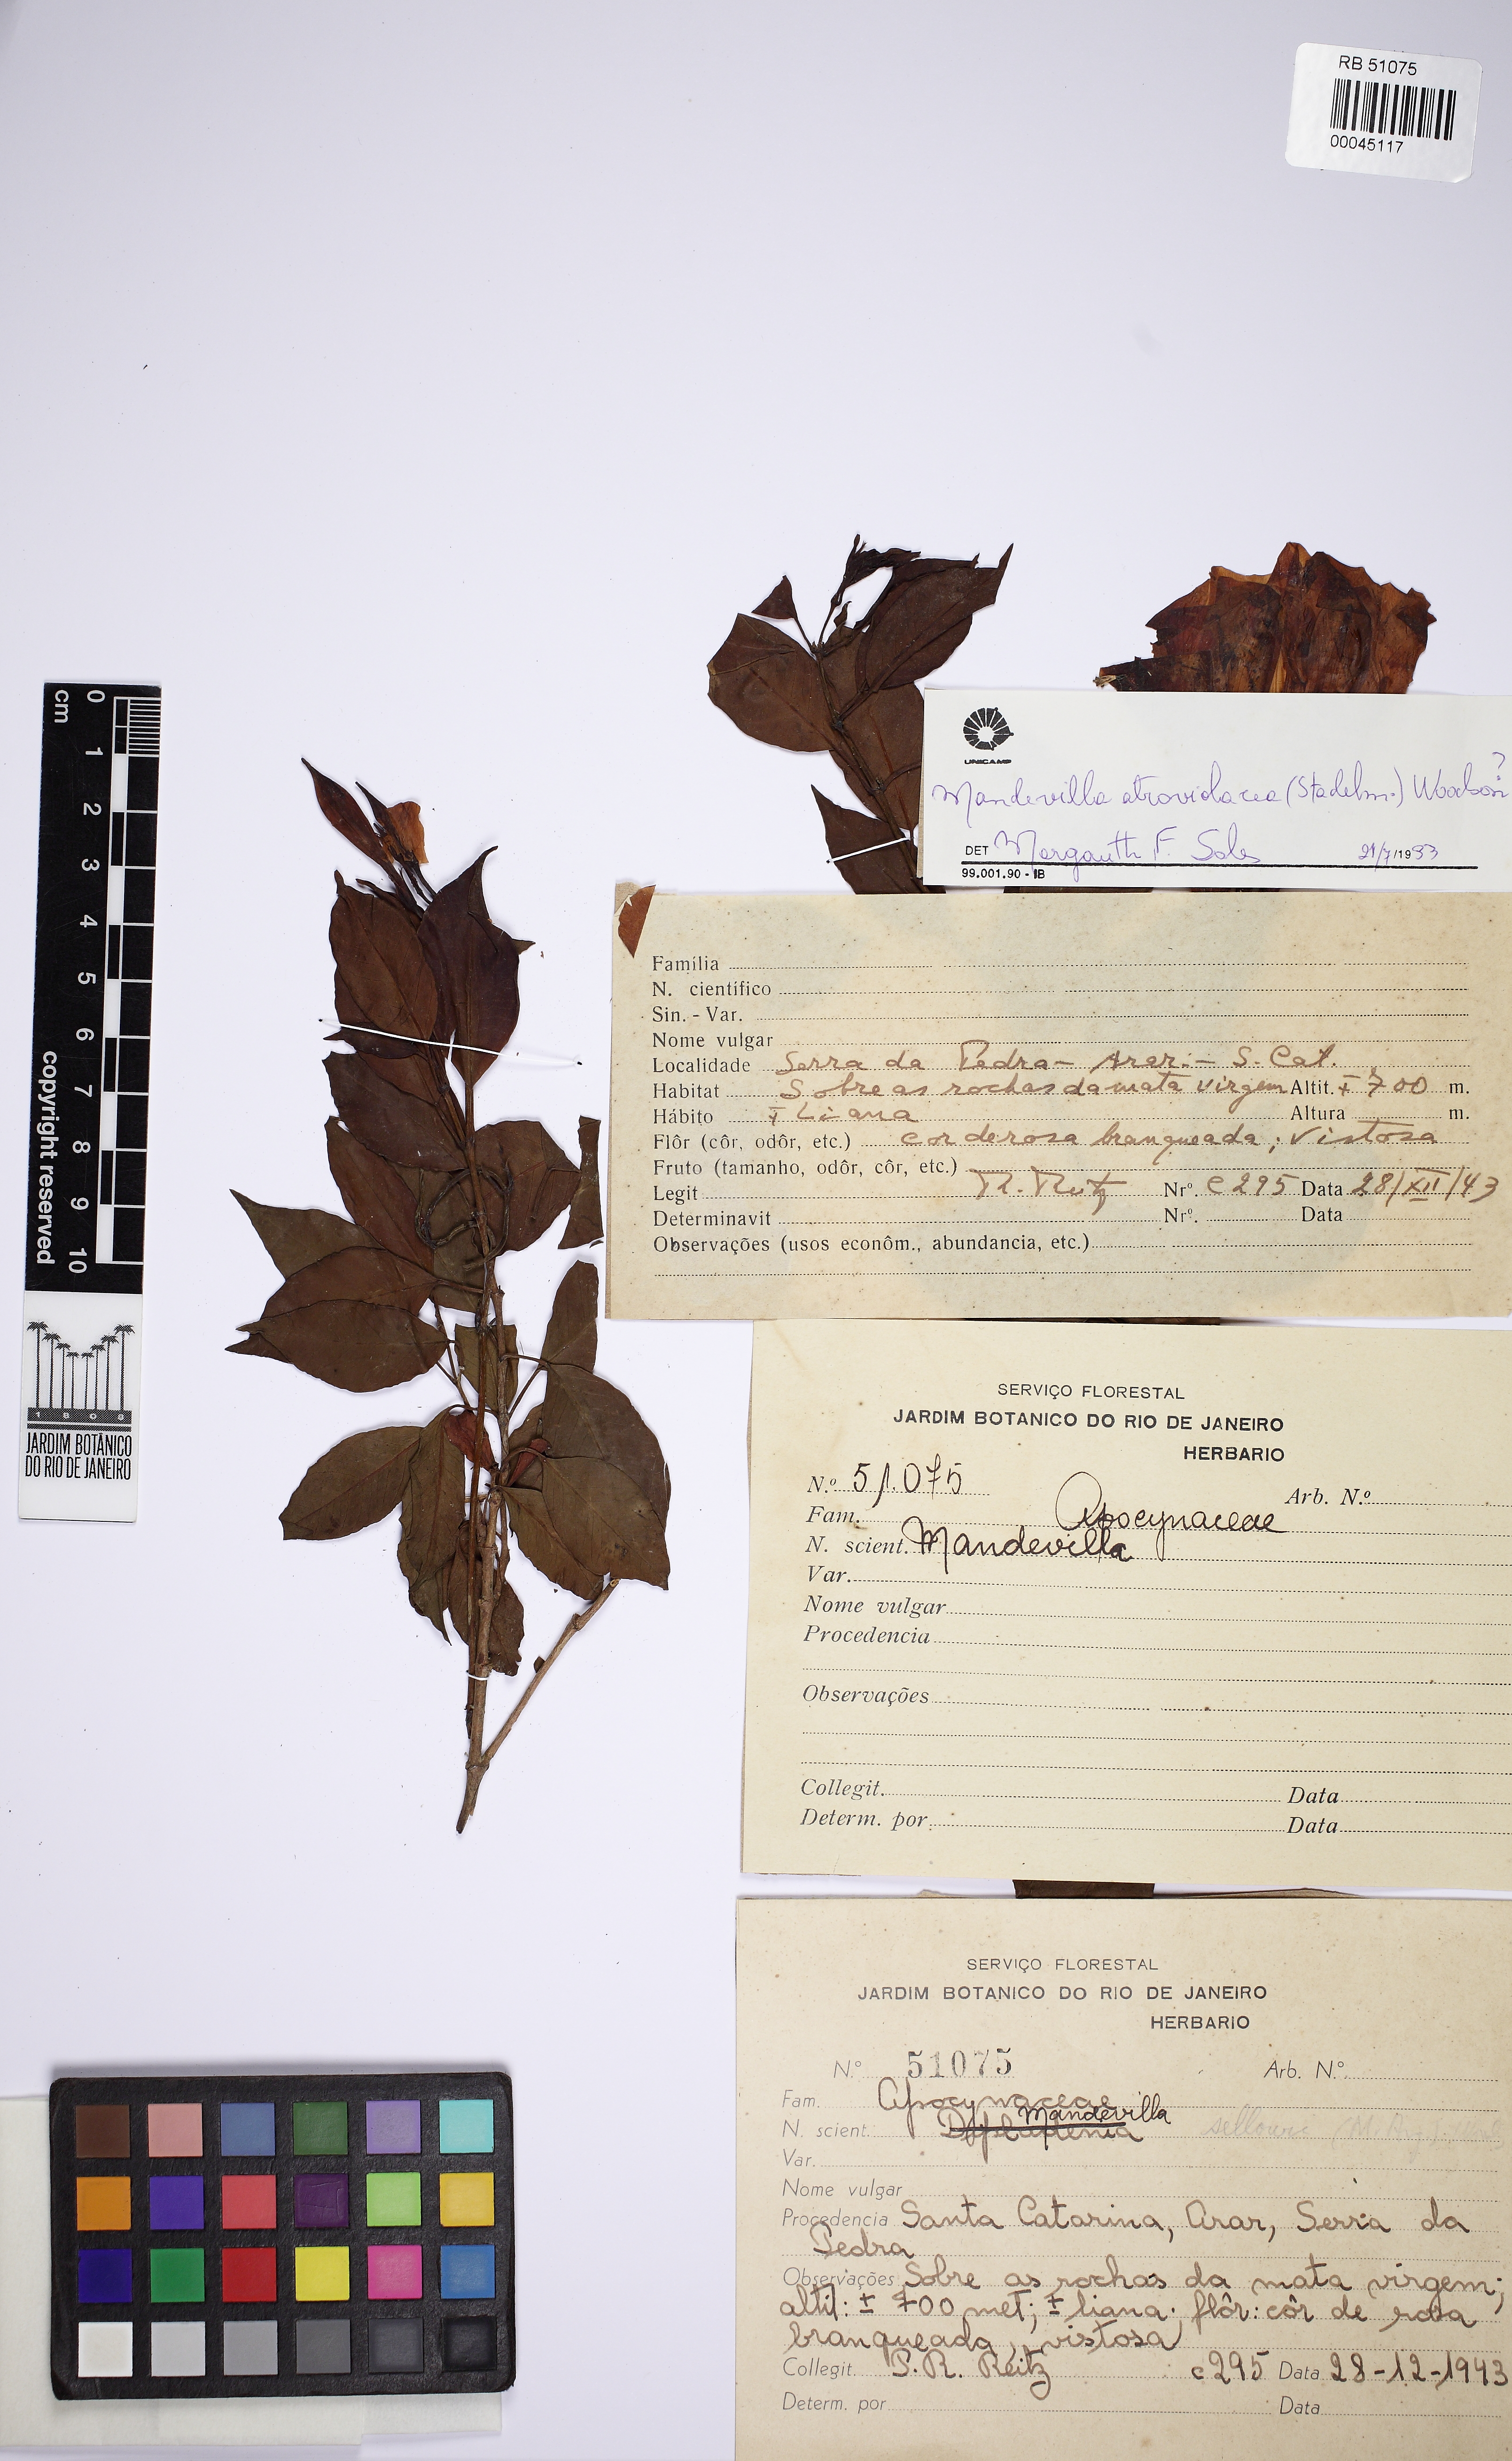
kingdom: Plantae
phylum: Tracheophyta
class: Magnoliopsida
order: Gentianales
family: Apocynaceae
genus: Mandevilla
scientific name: Mandevilla atroviolacea
